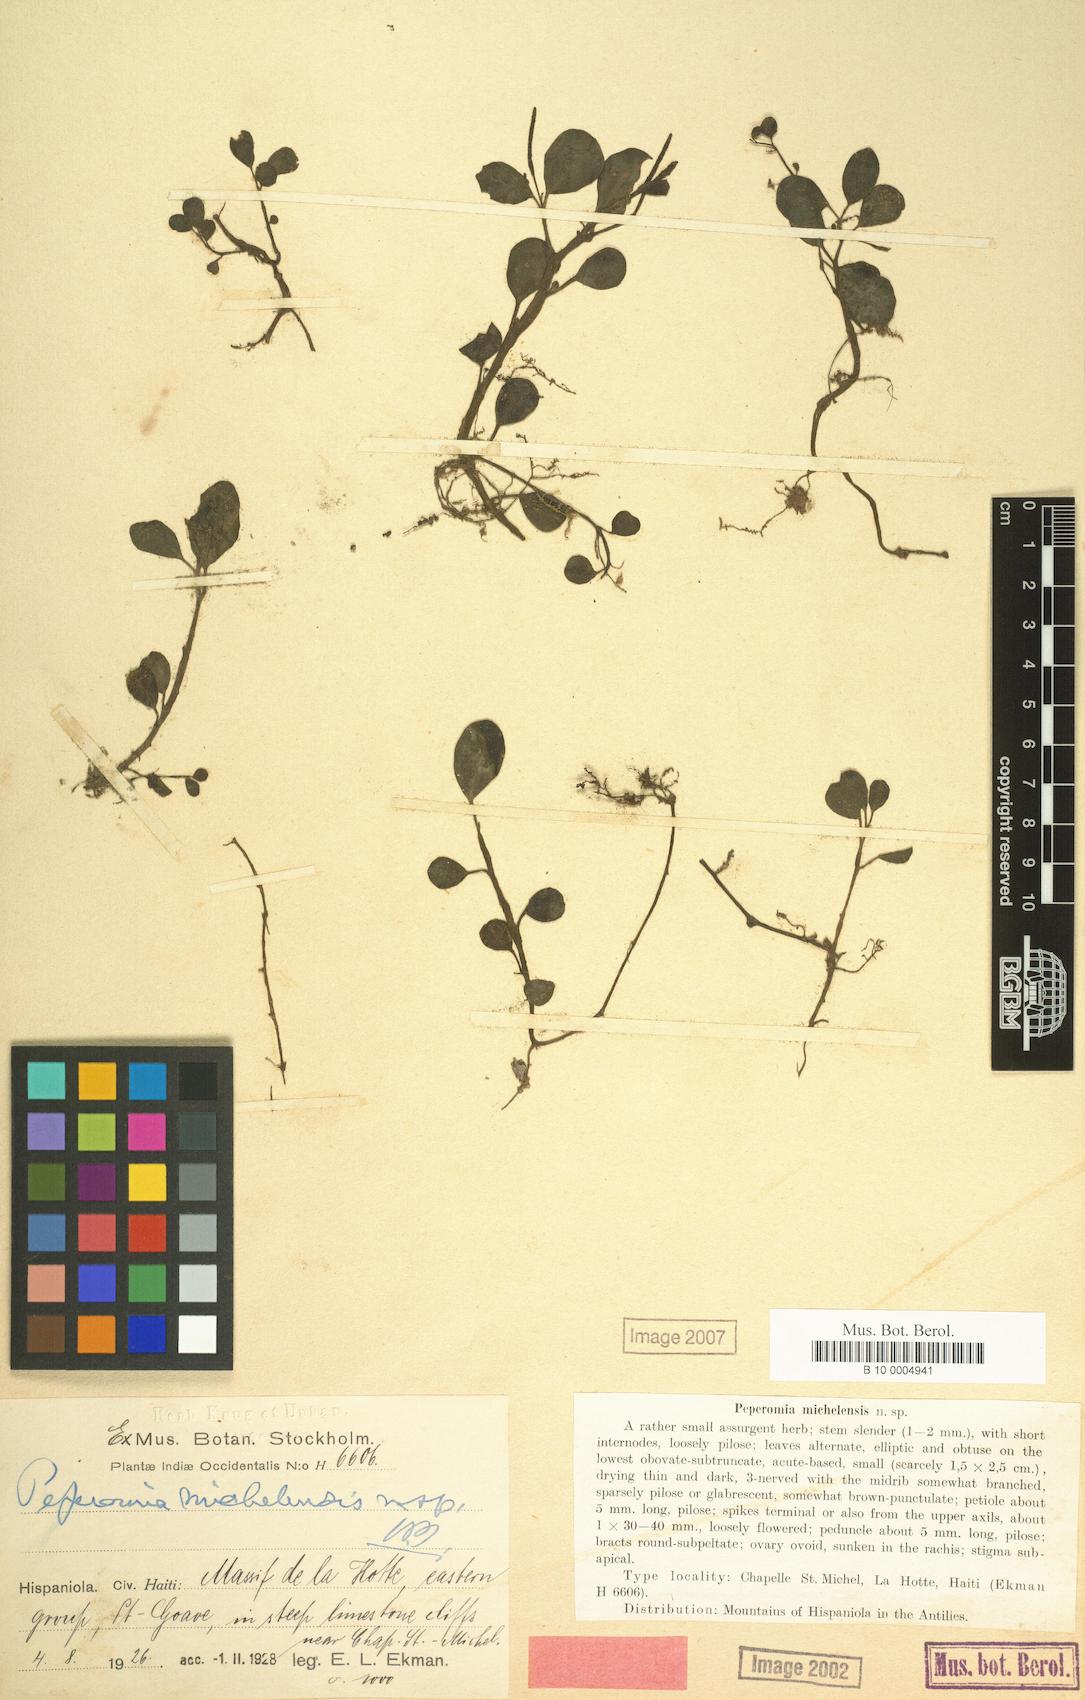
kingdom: Plantae
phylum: Tracheophyta
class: Magnoliopsida
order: Piperales
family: Piperaceae
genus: Peperomia
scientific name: Peperomia spathophylla
